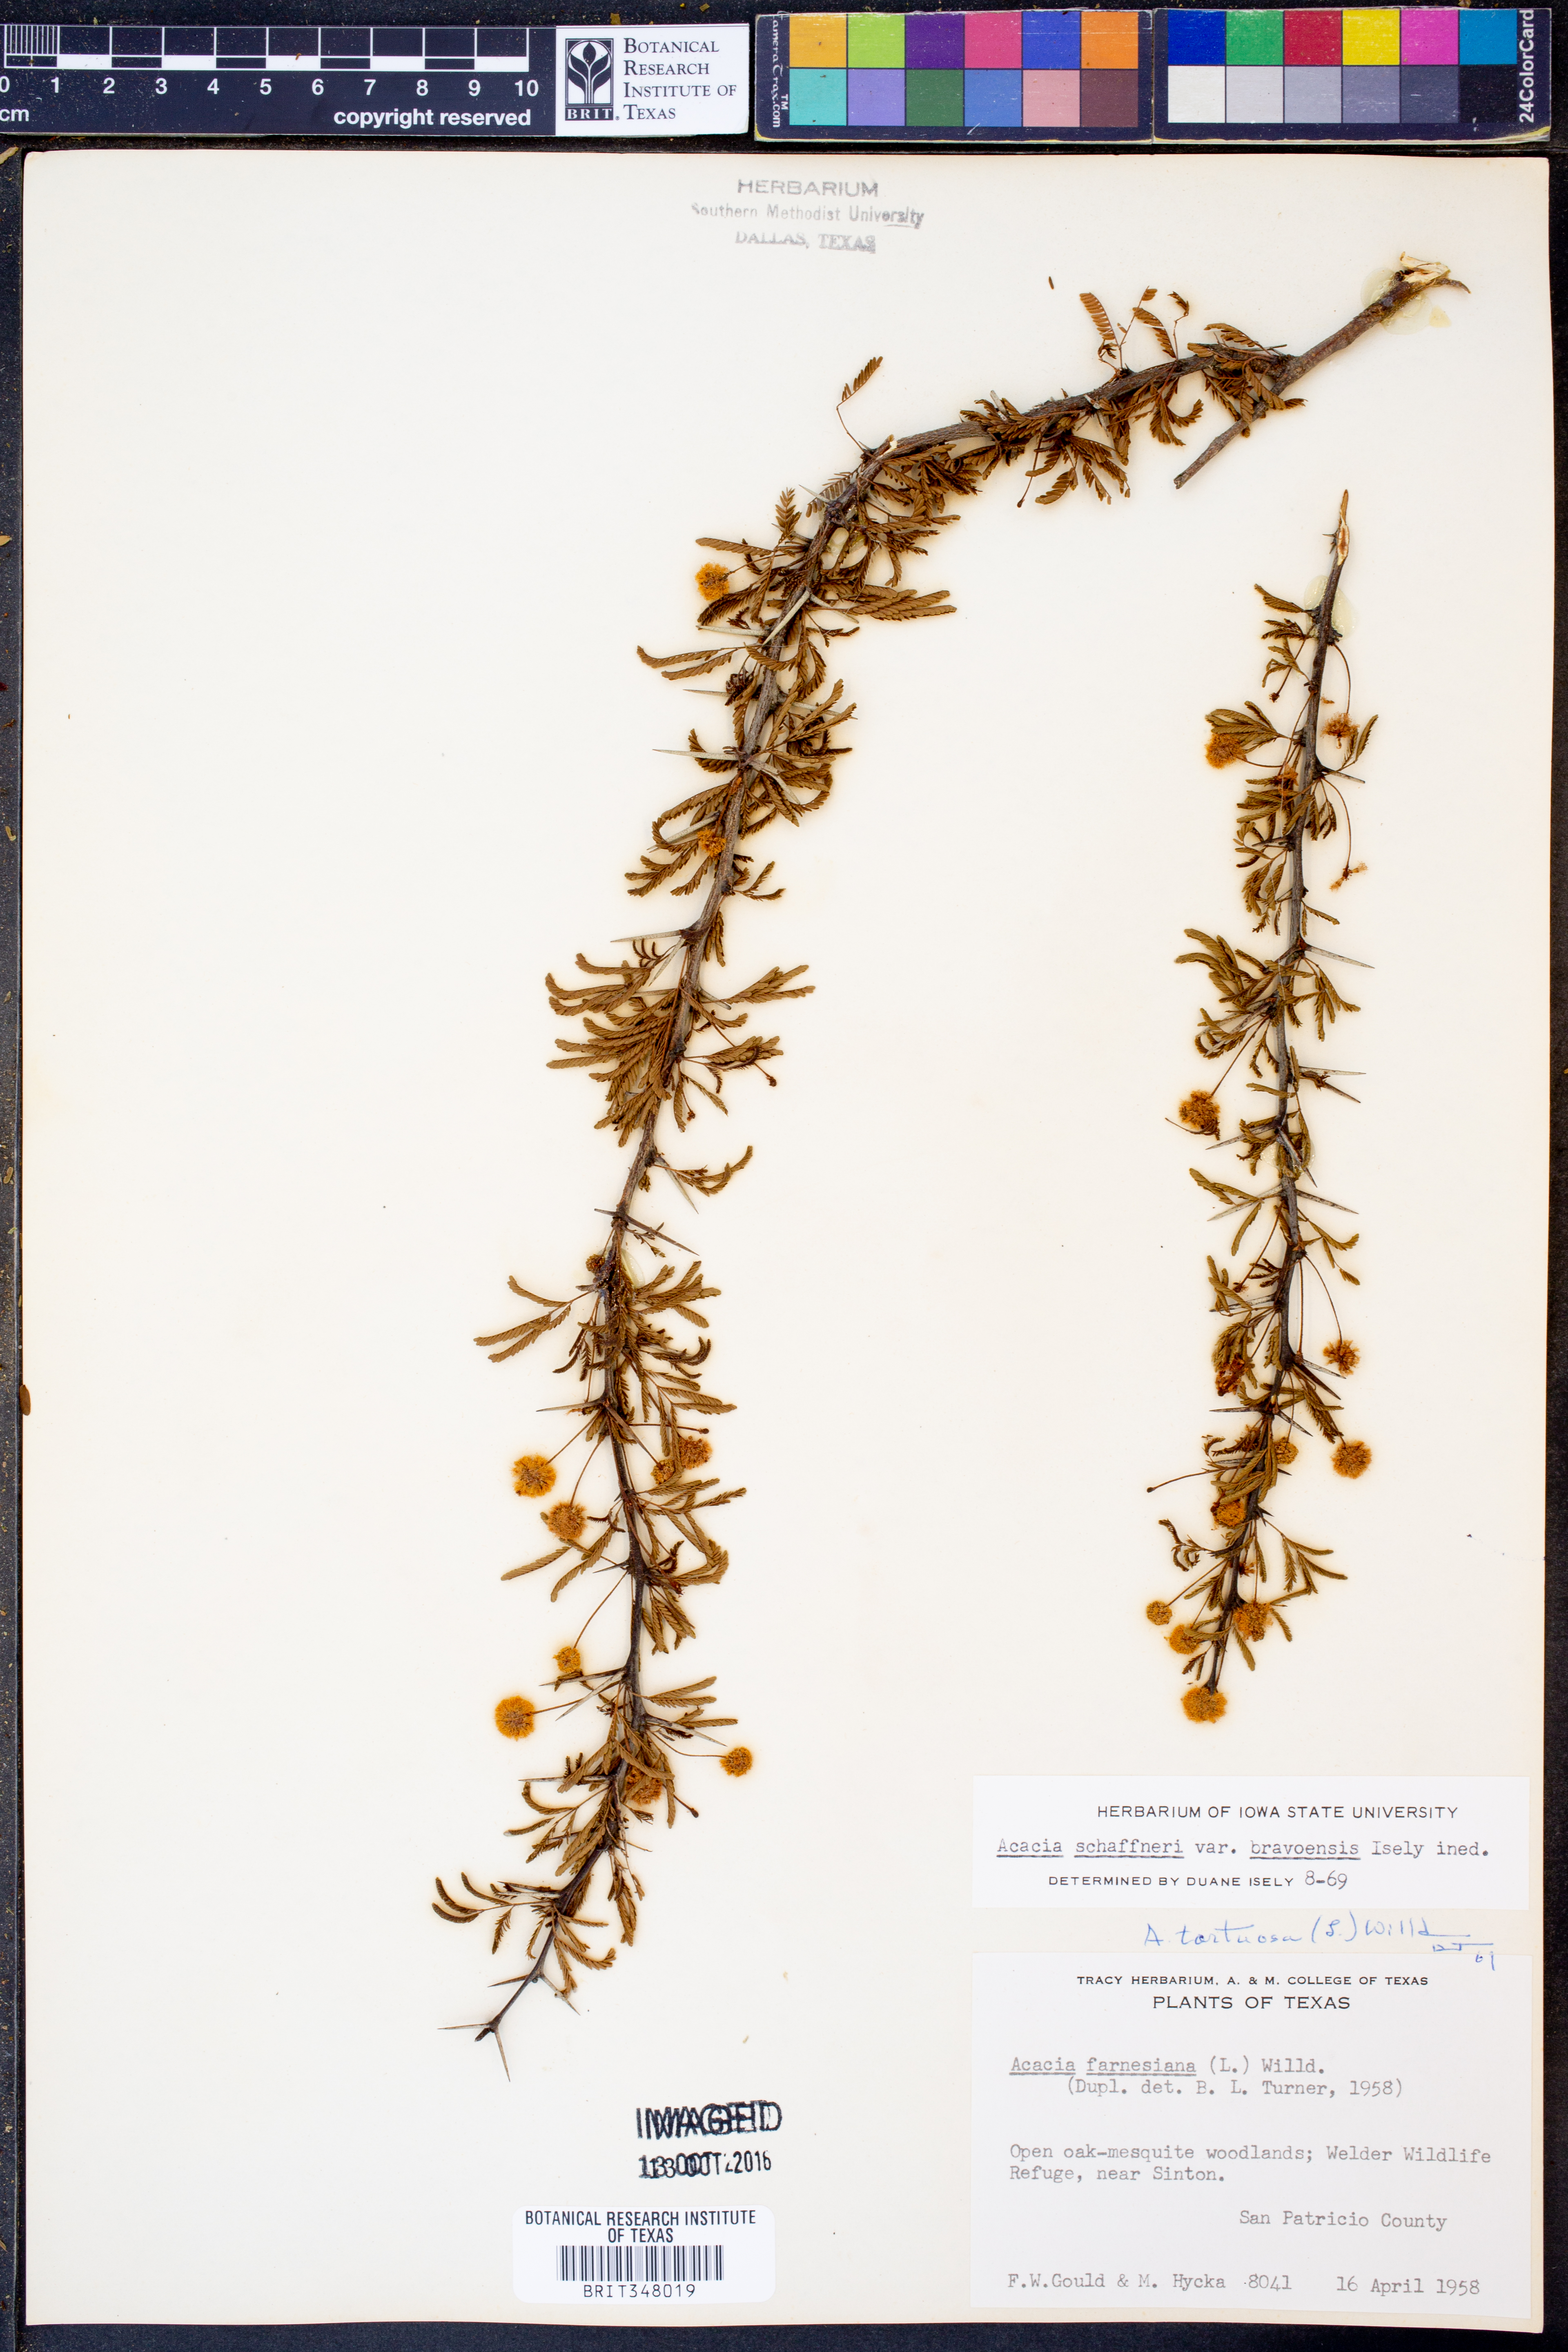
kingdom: Plantae
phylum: Tracheophyta
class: Magnoliopsida
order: Fabales
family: Fabaceae
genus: Vachellia
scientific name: Vachellia bravoensis
